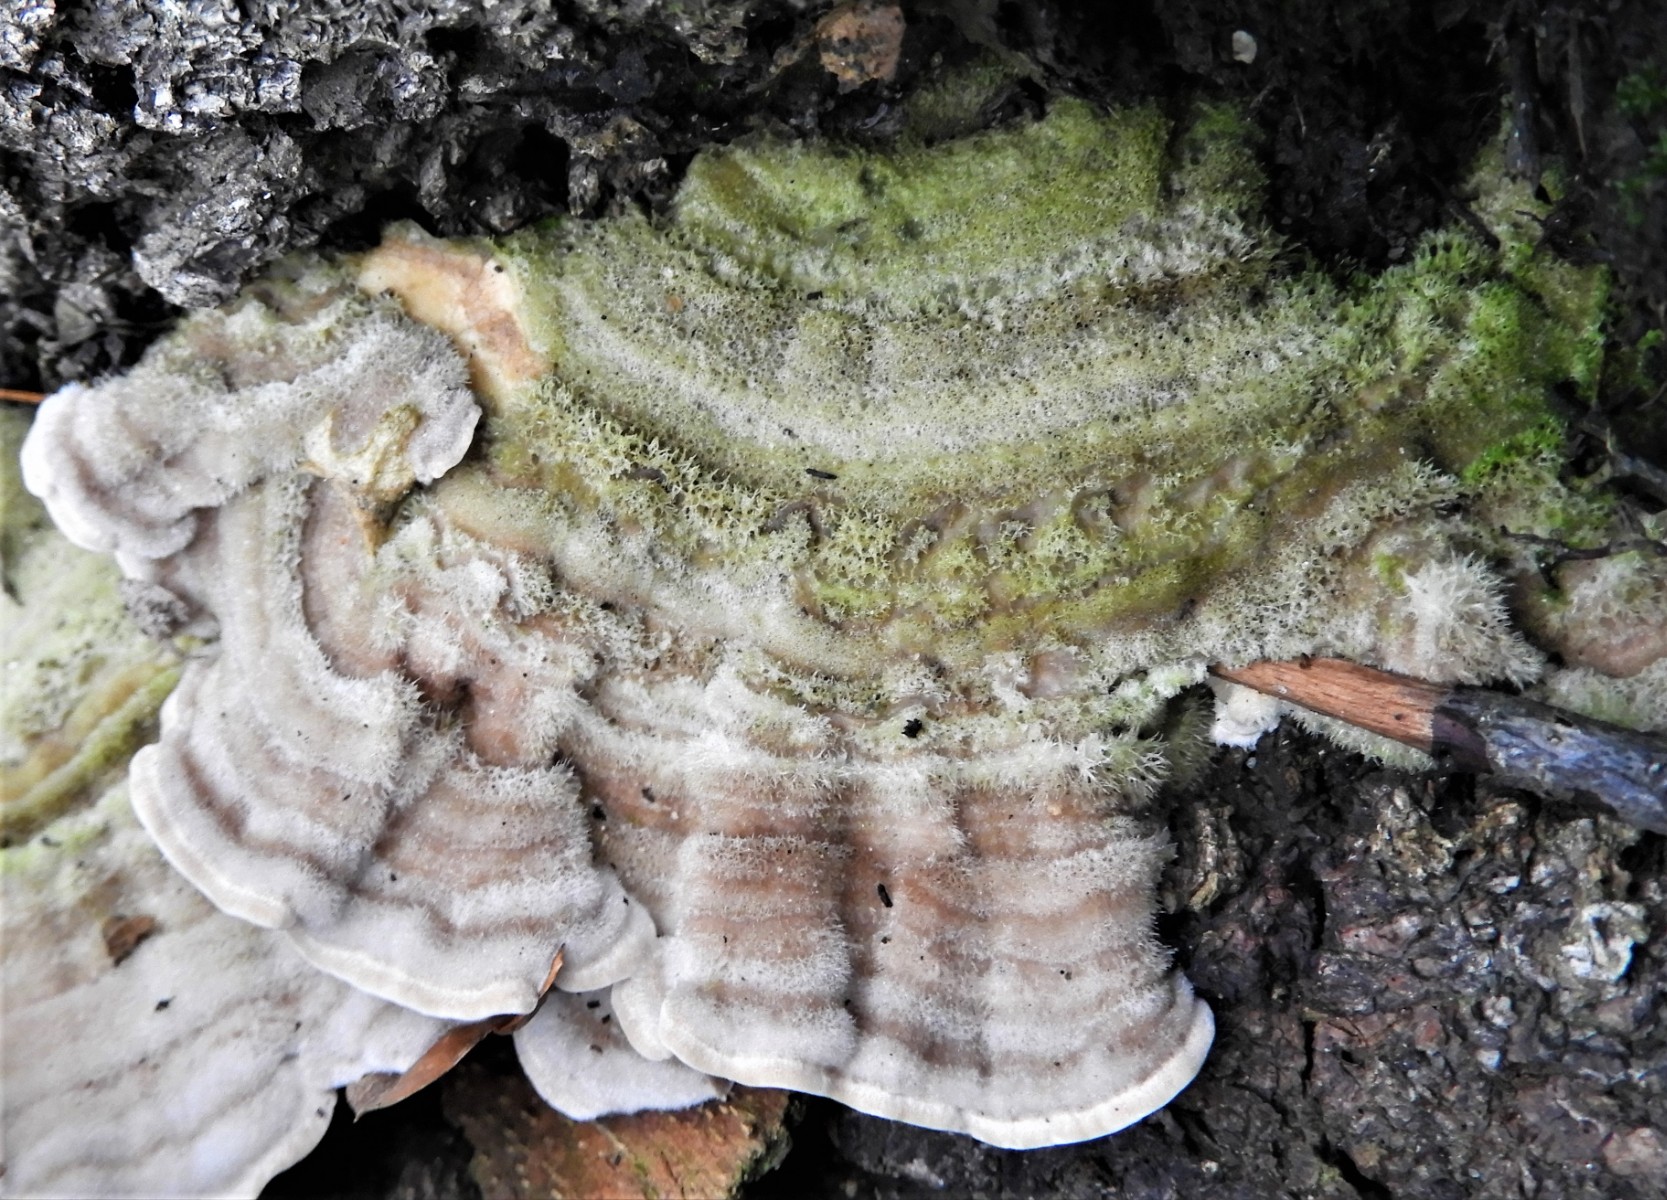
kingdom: Fungi
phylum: Basidiomycota
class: Agaricomycetes
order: Polyporales
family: Polyporaceae
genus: Lenzites
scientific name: Lenzites betulinus
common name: birke-læderporesvamp
